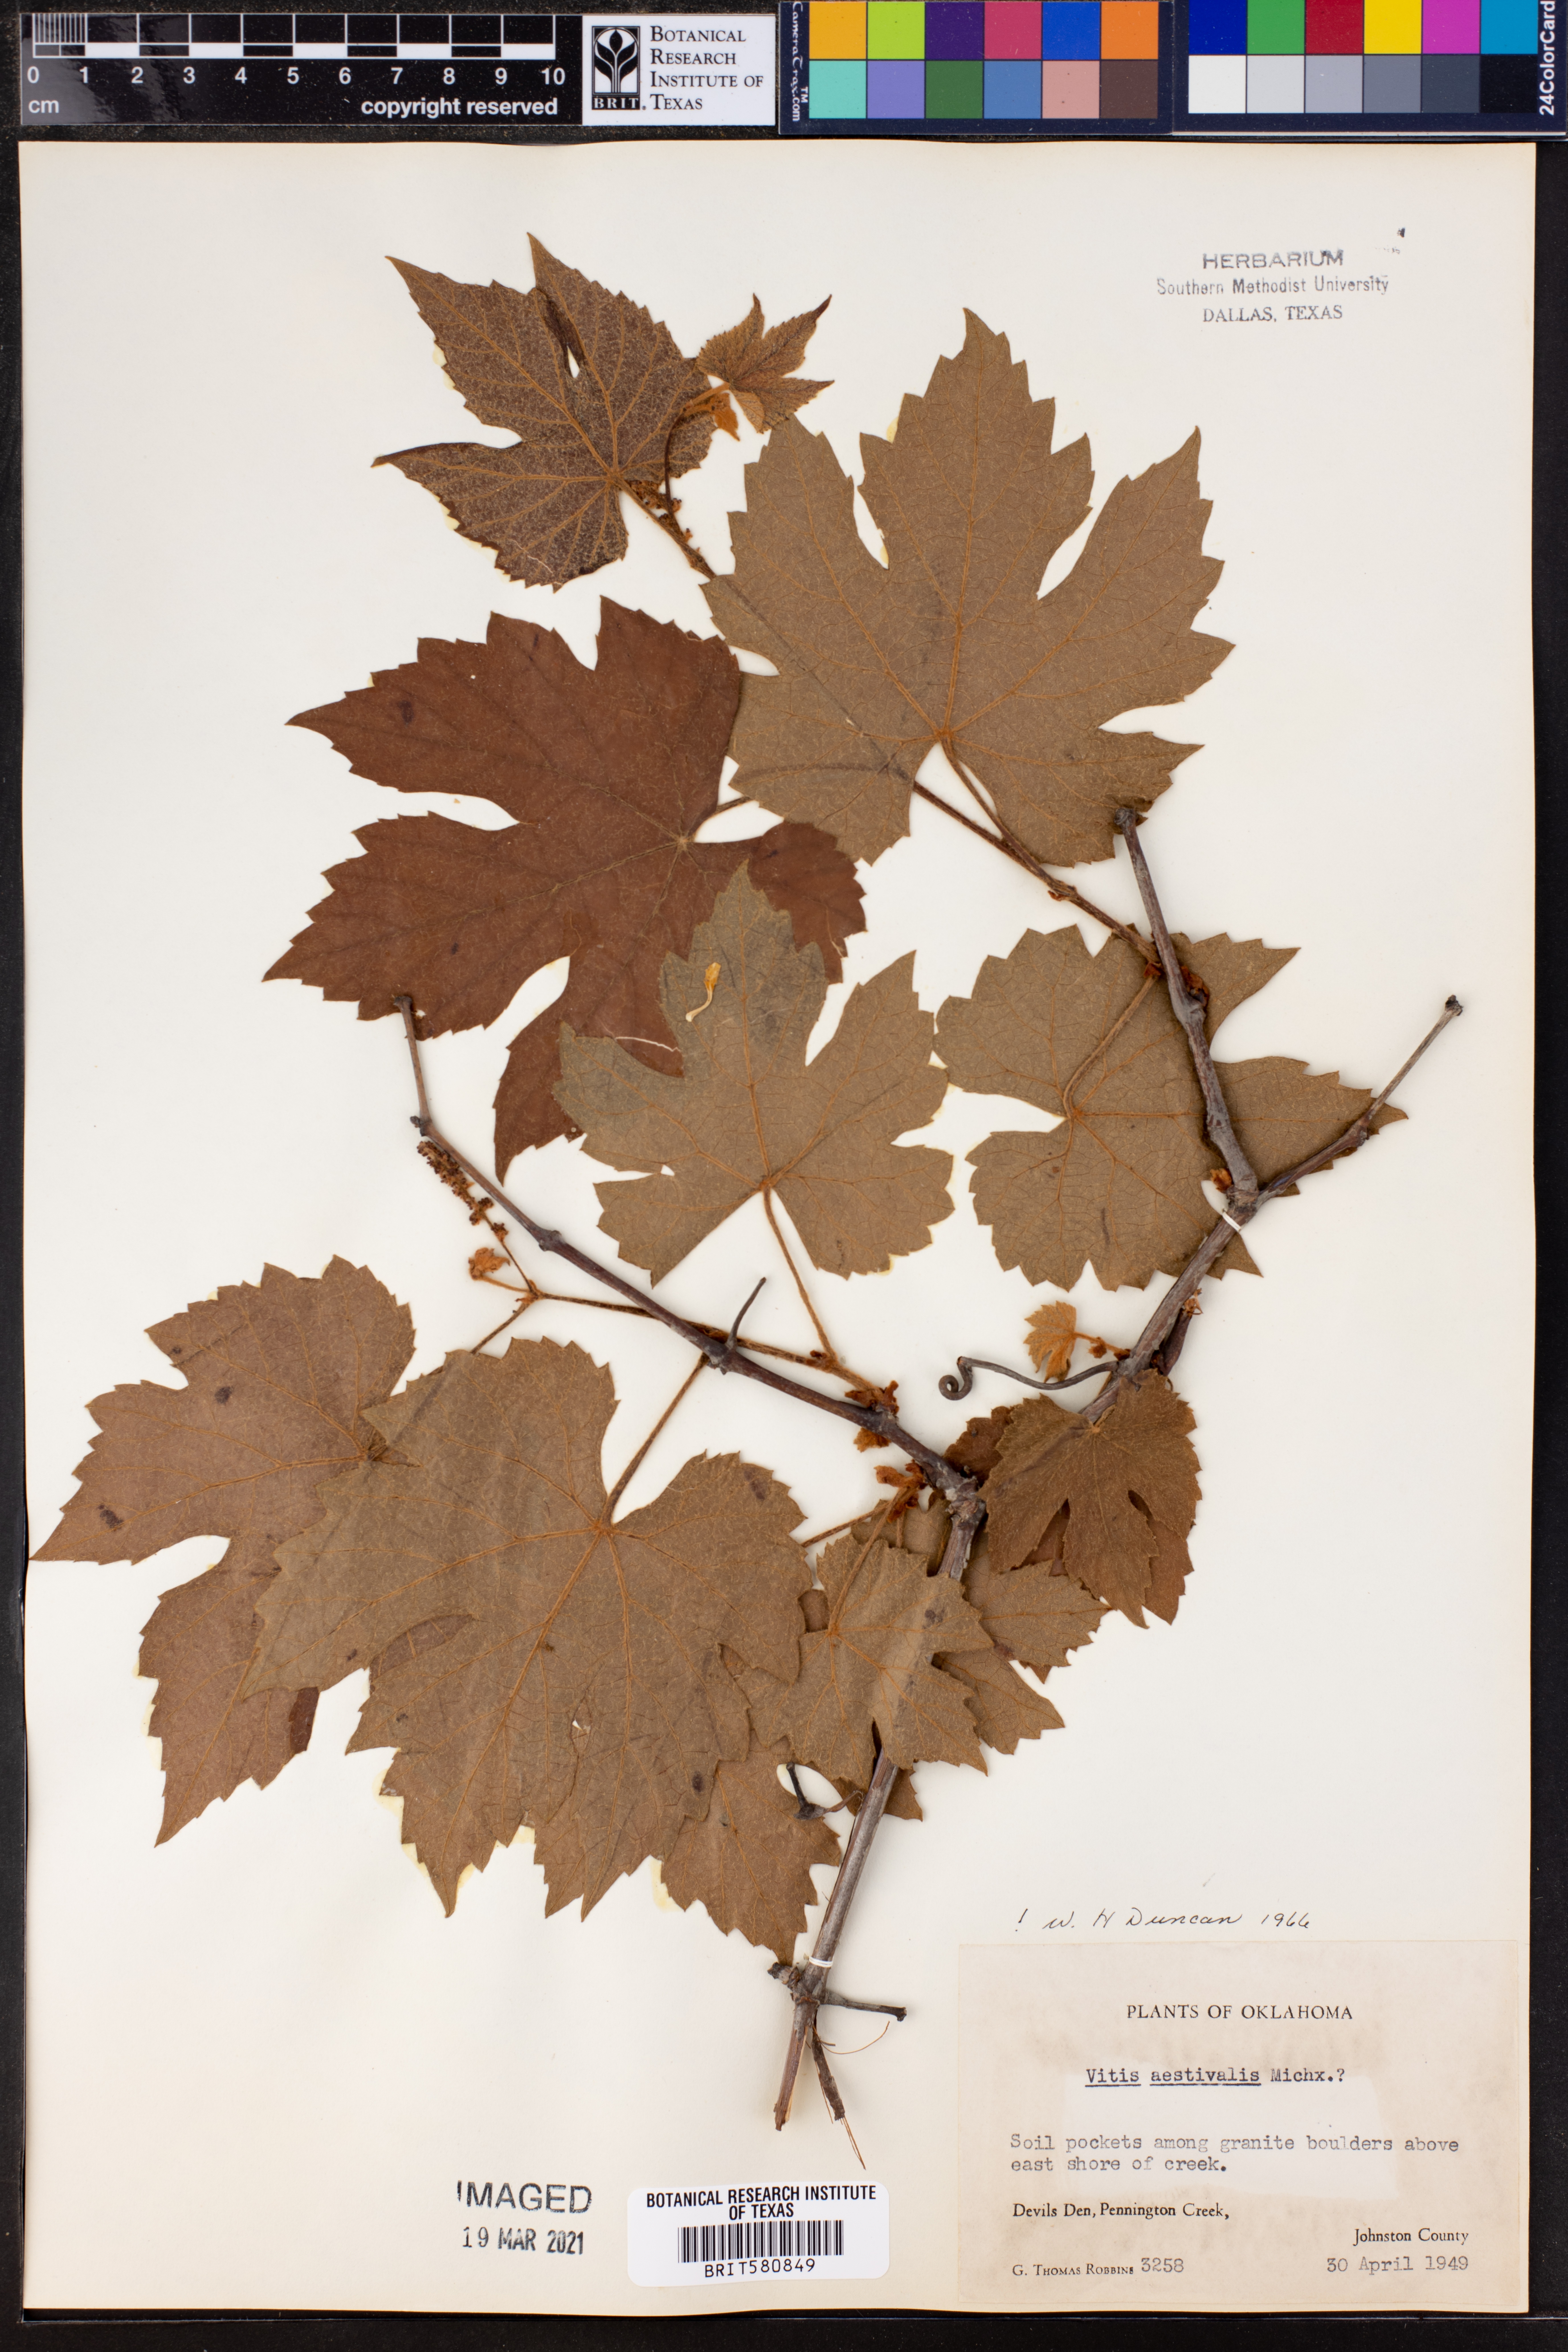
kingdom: Plantae
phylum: Tracheophyta
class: Magnoliopsida
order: Vitales
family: Vitaceae
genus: Vitis
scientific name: Vitis aestivalis
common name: Pigeon grape
